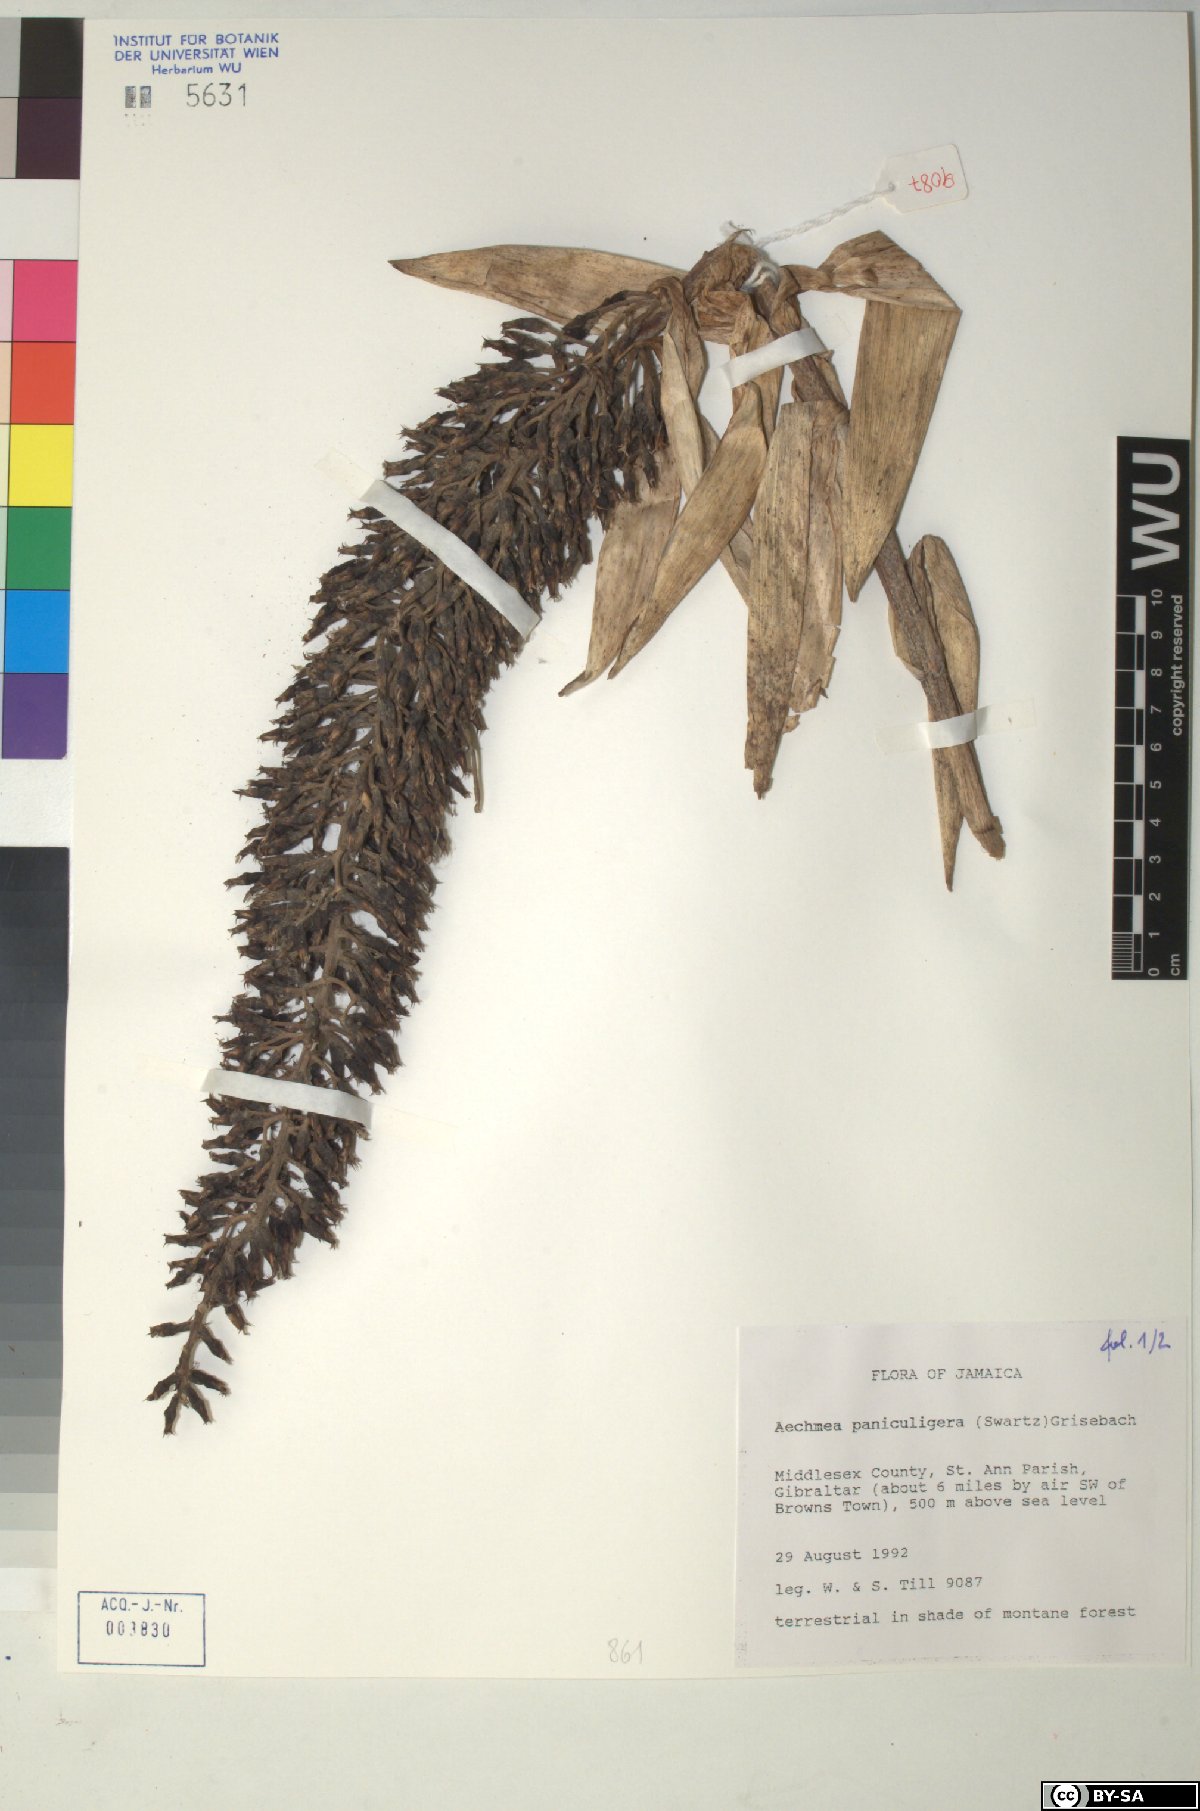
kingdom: Plantae
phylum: Tracheophyta
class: Liliopsida
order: Poales
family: Bromeliaceae
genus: Aechmea
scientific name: Aechmea paniculigera
